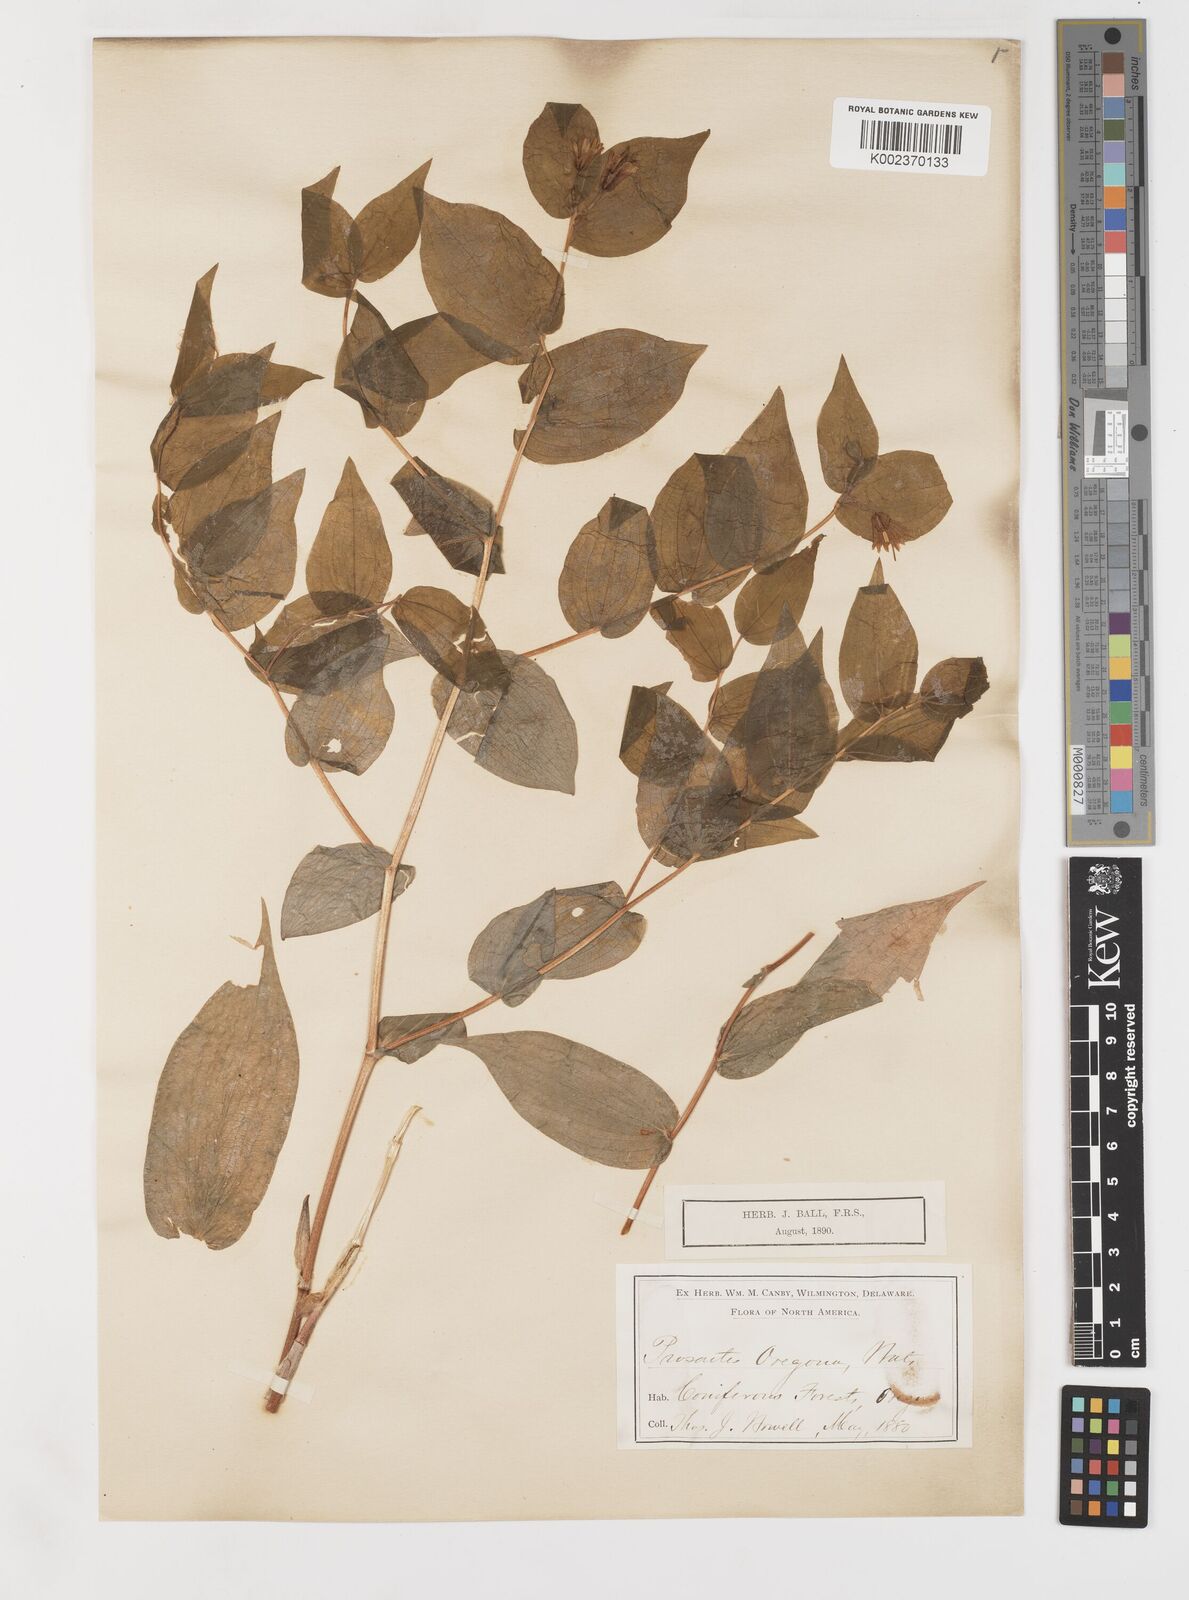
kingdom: Plantae
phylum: Tracheophyta
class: Liliopsida
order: Liliales
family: Liliaceae
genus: Prosartes
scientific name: Prosartes hookeri
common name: Fairy-bells
